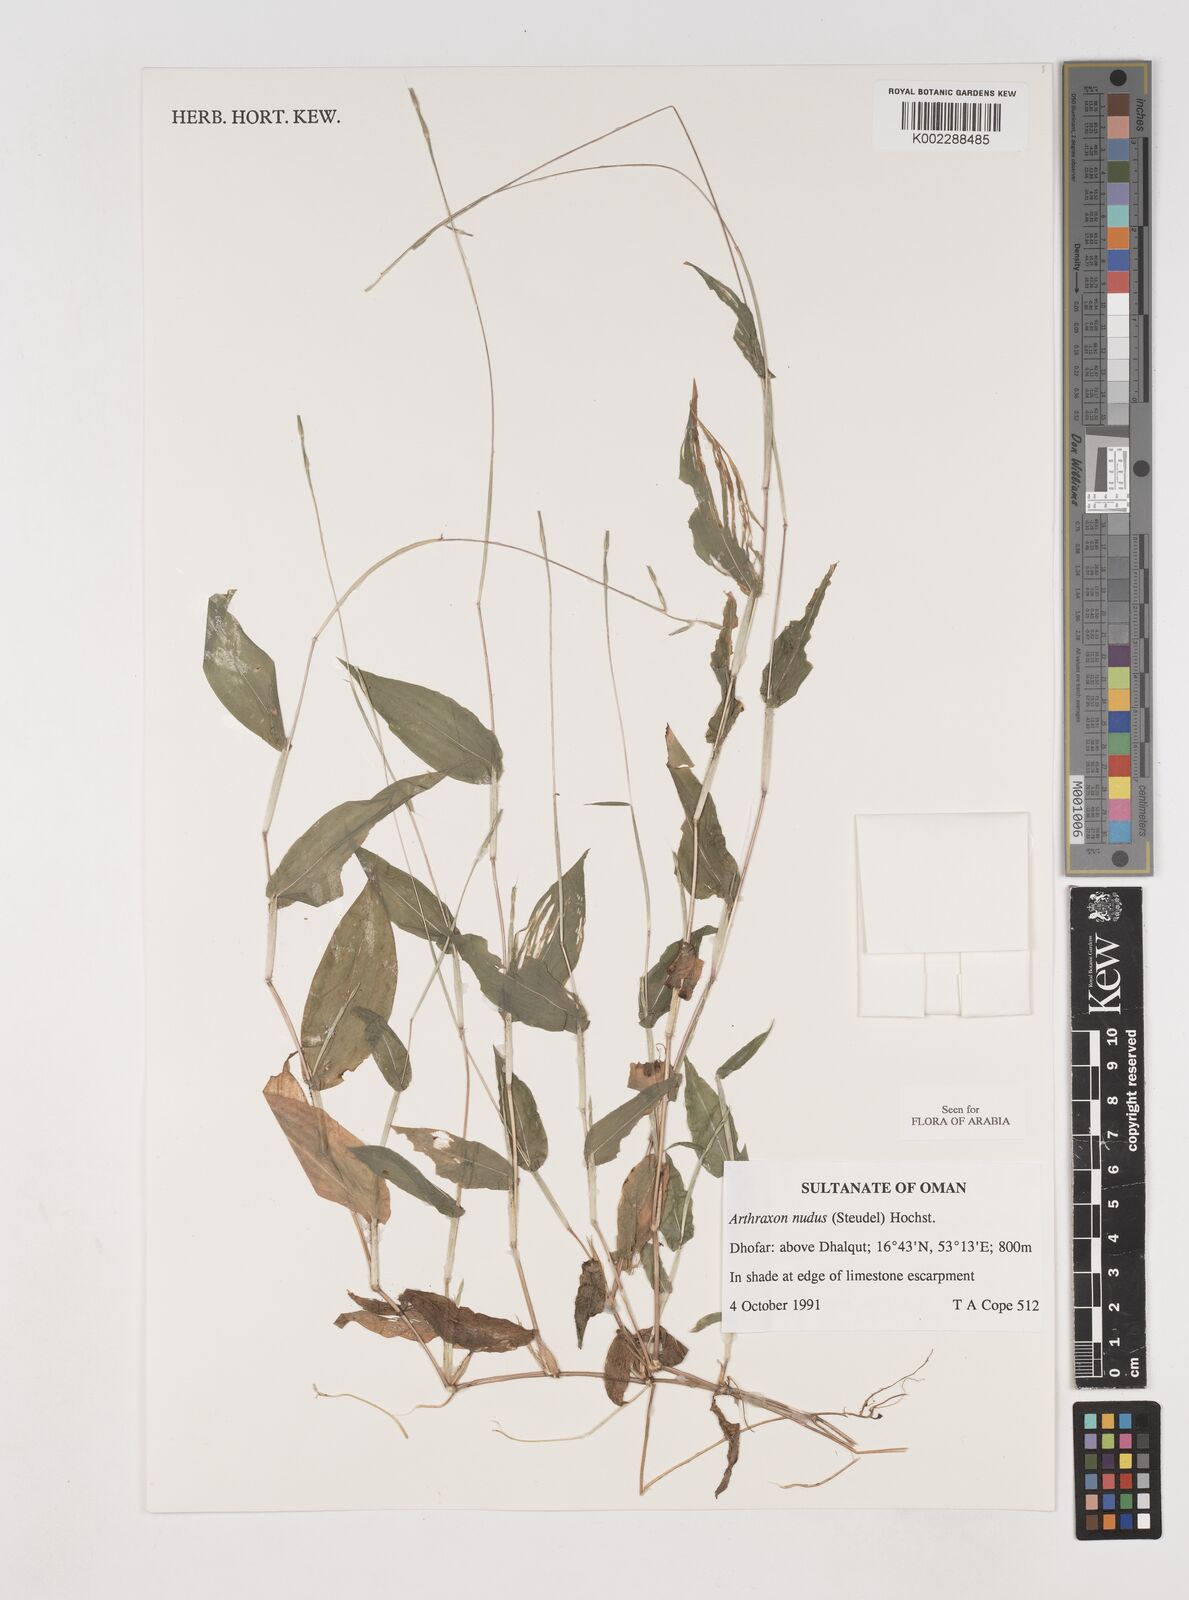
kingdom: Plantae
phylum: Tracheophyta
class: Liliopsida
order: Poales
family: Poaceae
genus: Arthraxon
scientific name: Arthraxon nudus
